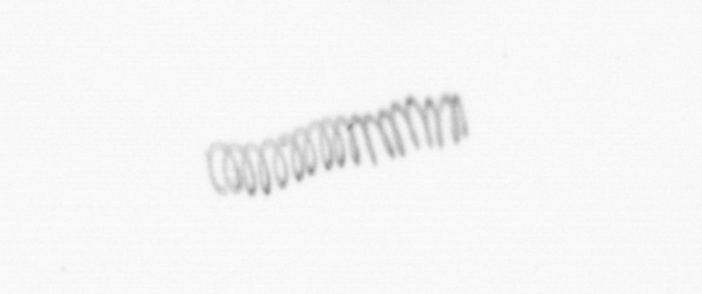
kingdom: Chromista
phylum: Ochrophyta
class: Bacillariophyceae
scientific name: Bacillariophyceae
